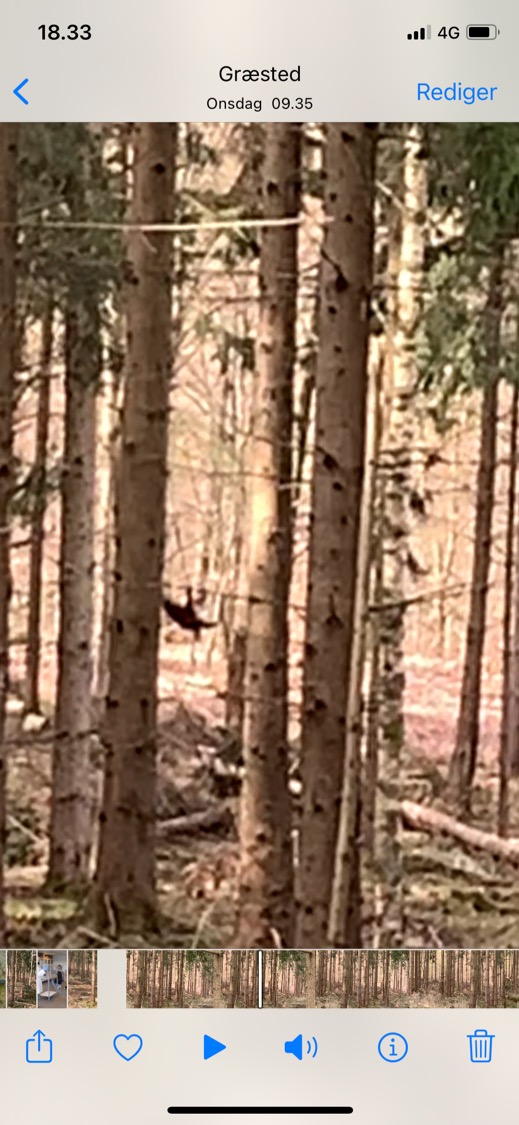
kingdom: Animalia
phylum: Chordata
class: Aves
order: Piciformes
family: Picidae
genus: Dryocopus
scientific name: Dryocopus martius
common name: Sortspætte
